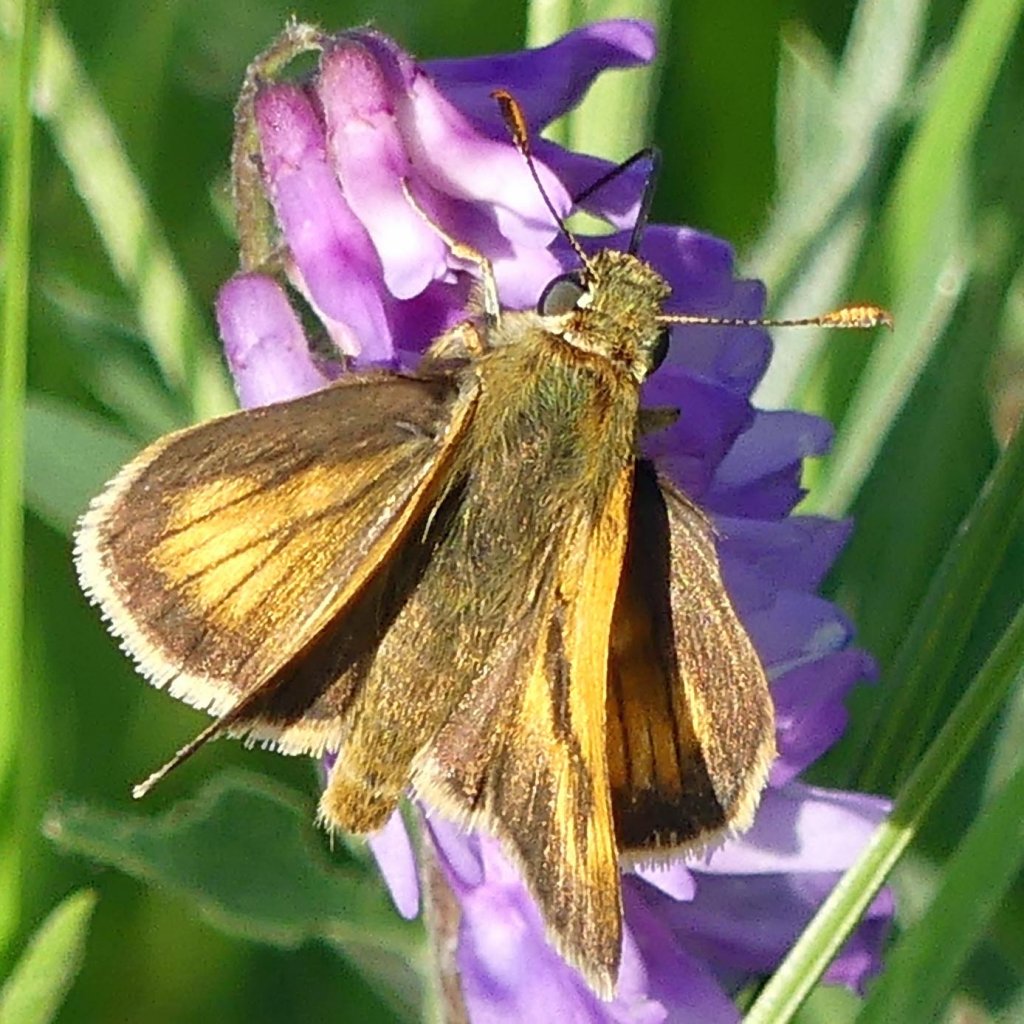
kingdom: Animalia
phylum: Arthropoda
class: Insecta
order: Lepidoptera
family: Hesperiidae
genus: Polites
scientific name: Polites
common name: Long Dash Skipper
